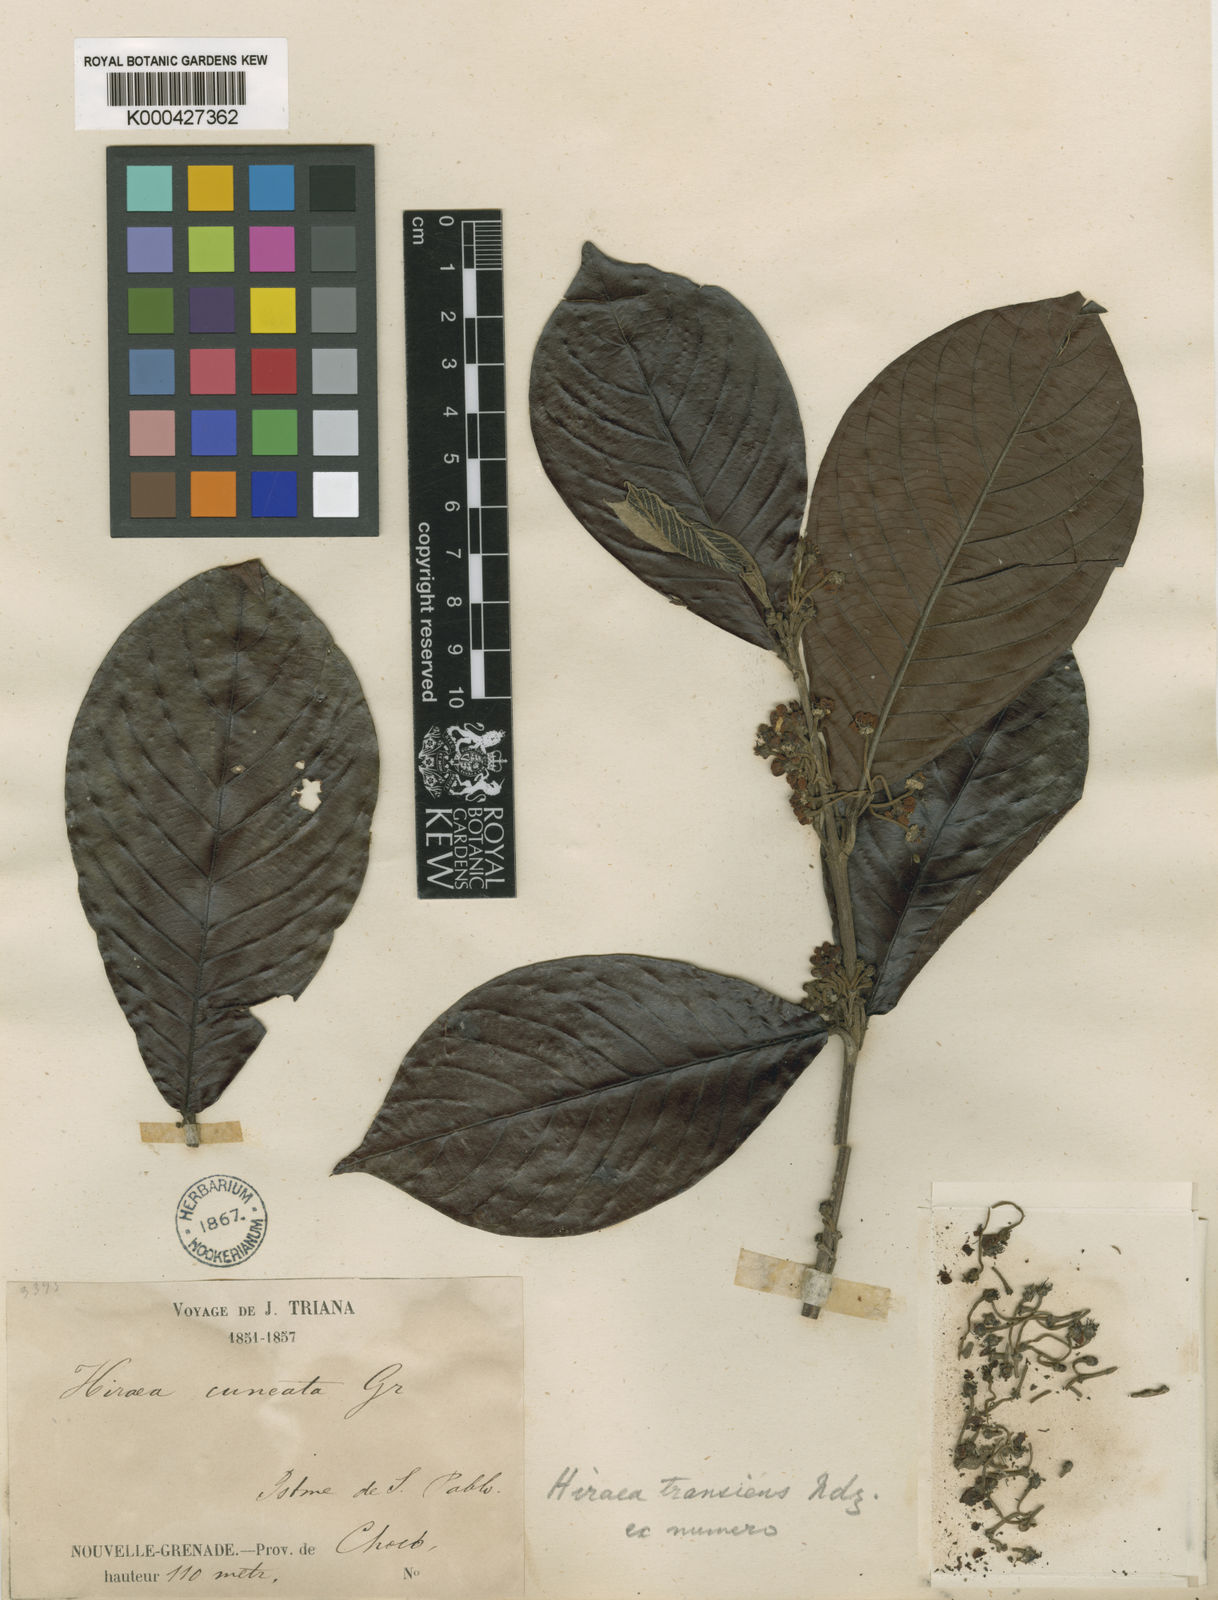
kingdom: Plantae
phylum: Tracheophyta
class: Magnoliopsida
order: Malpighiales
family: Malpighiaceae
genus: Hiraea
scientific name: Hiraea transiens
